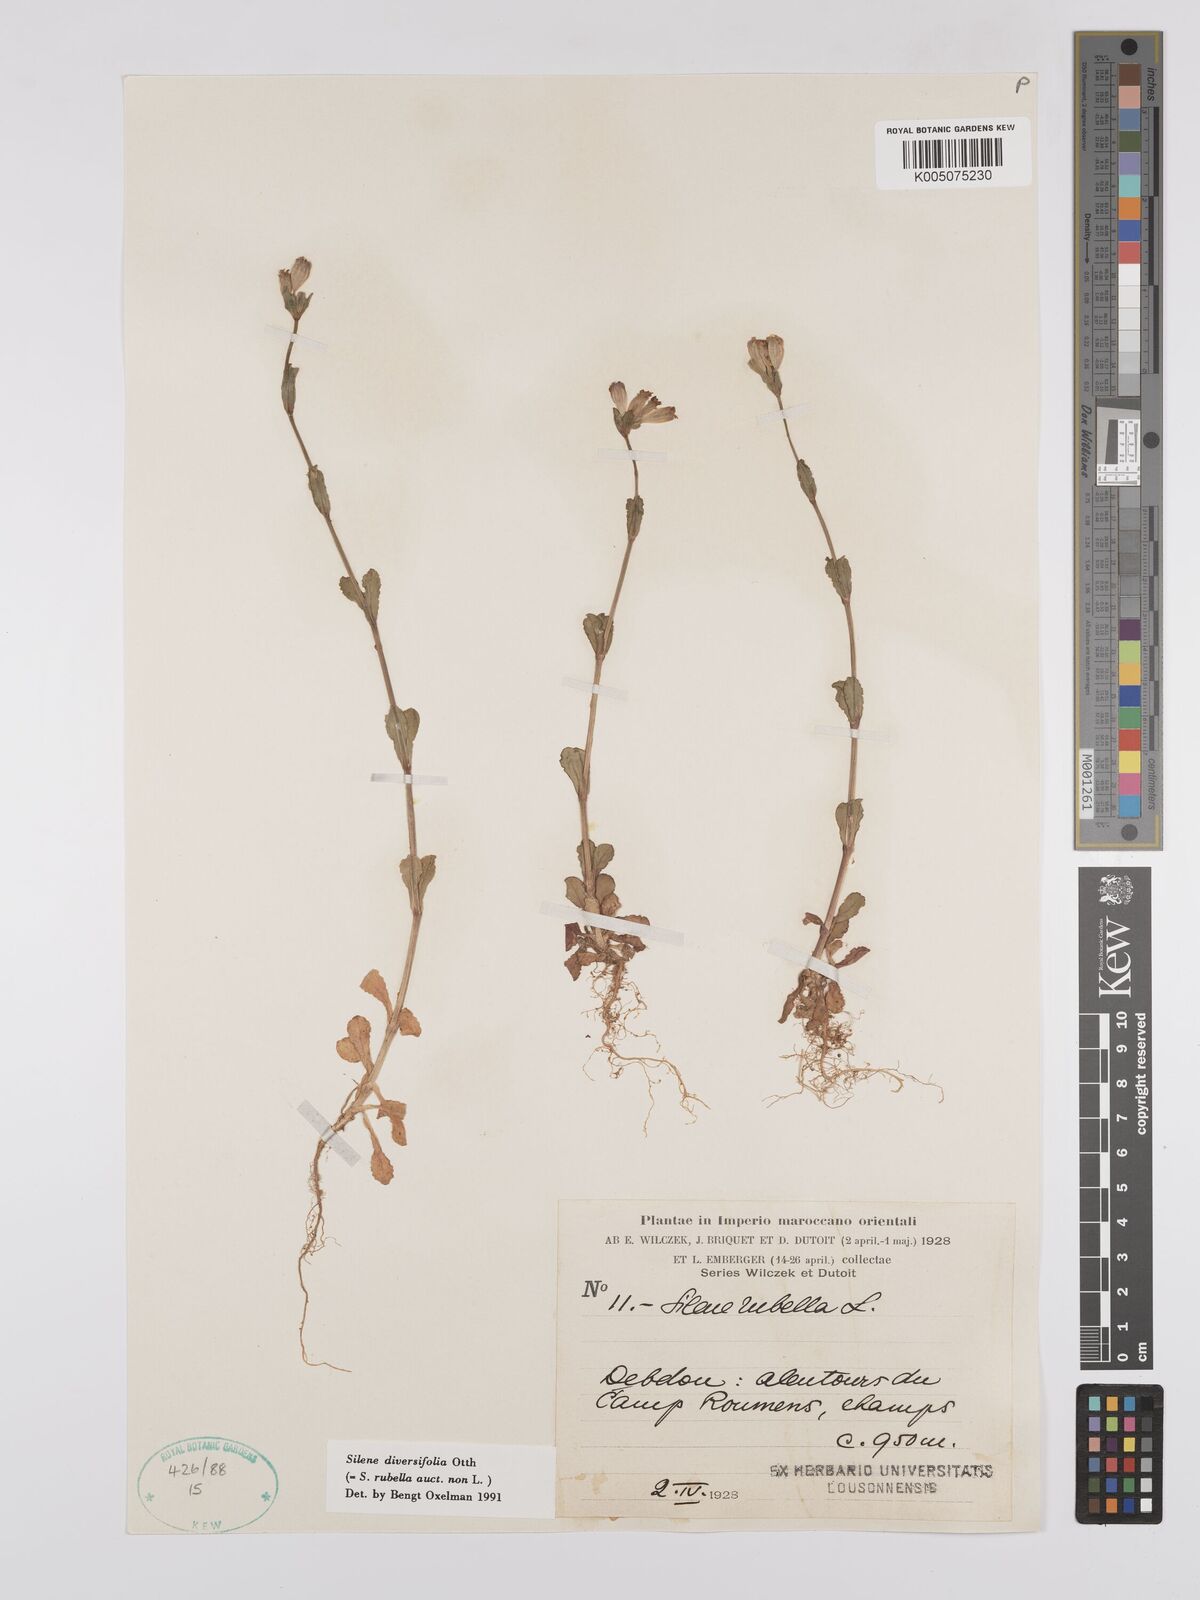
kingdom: Plantae
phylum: Tracheophyta
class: Magnoliopsida
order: Caryophyllales
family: Caryophyllaceae
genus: Silene
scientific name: Silene rubella
